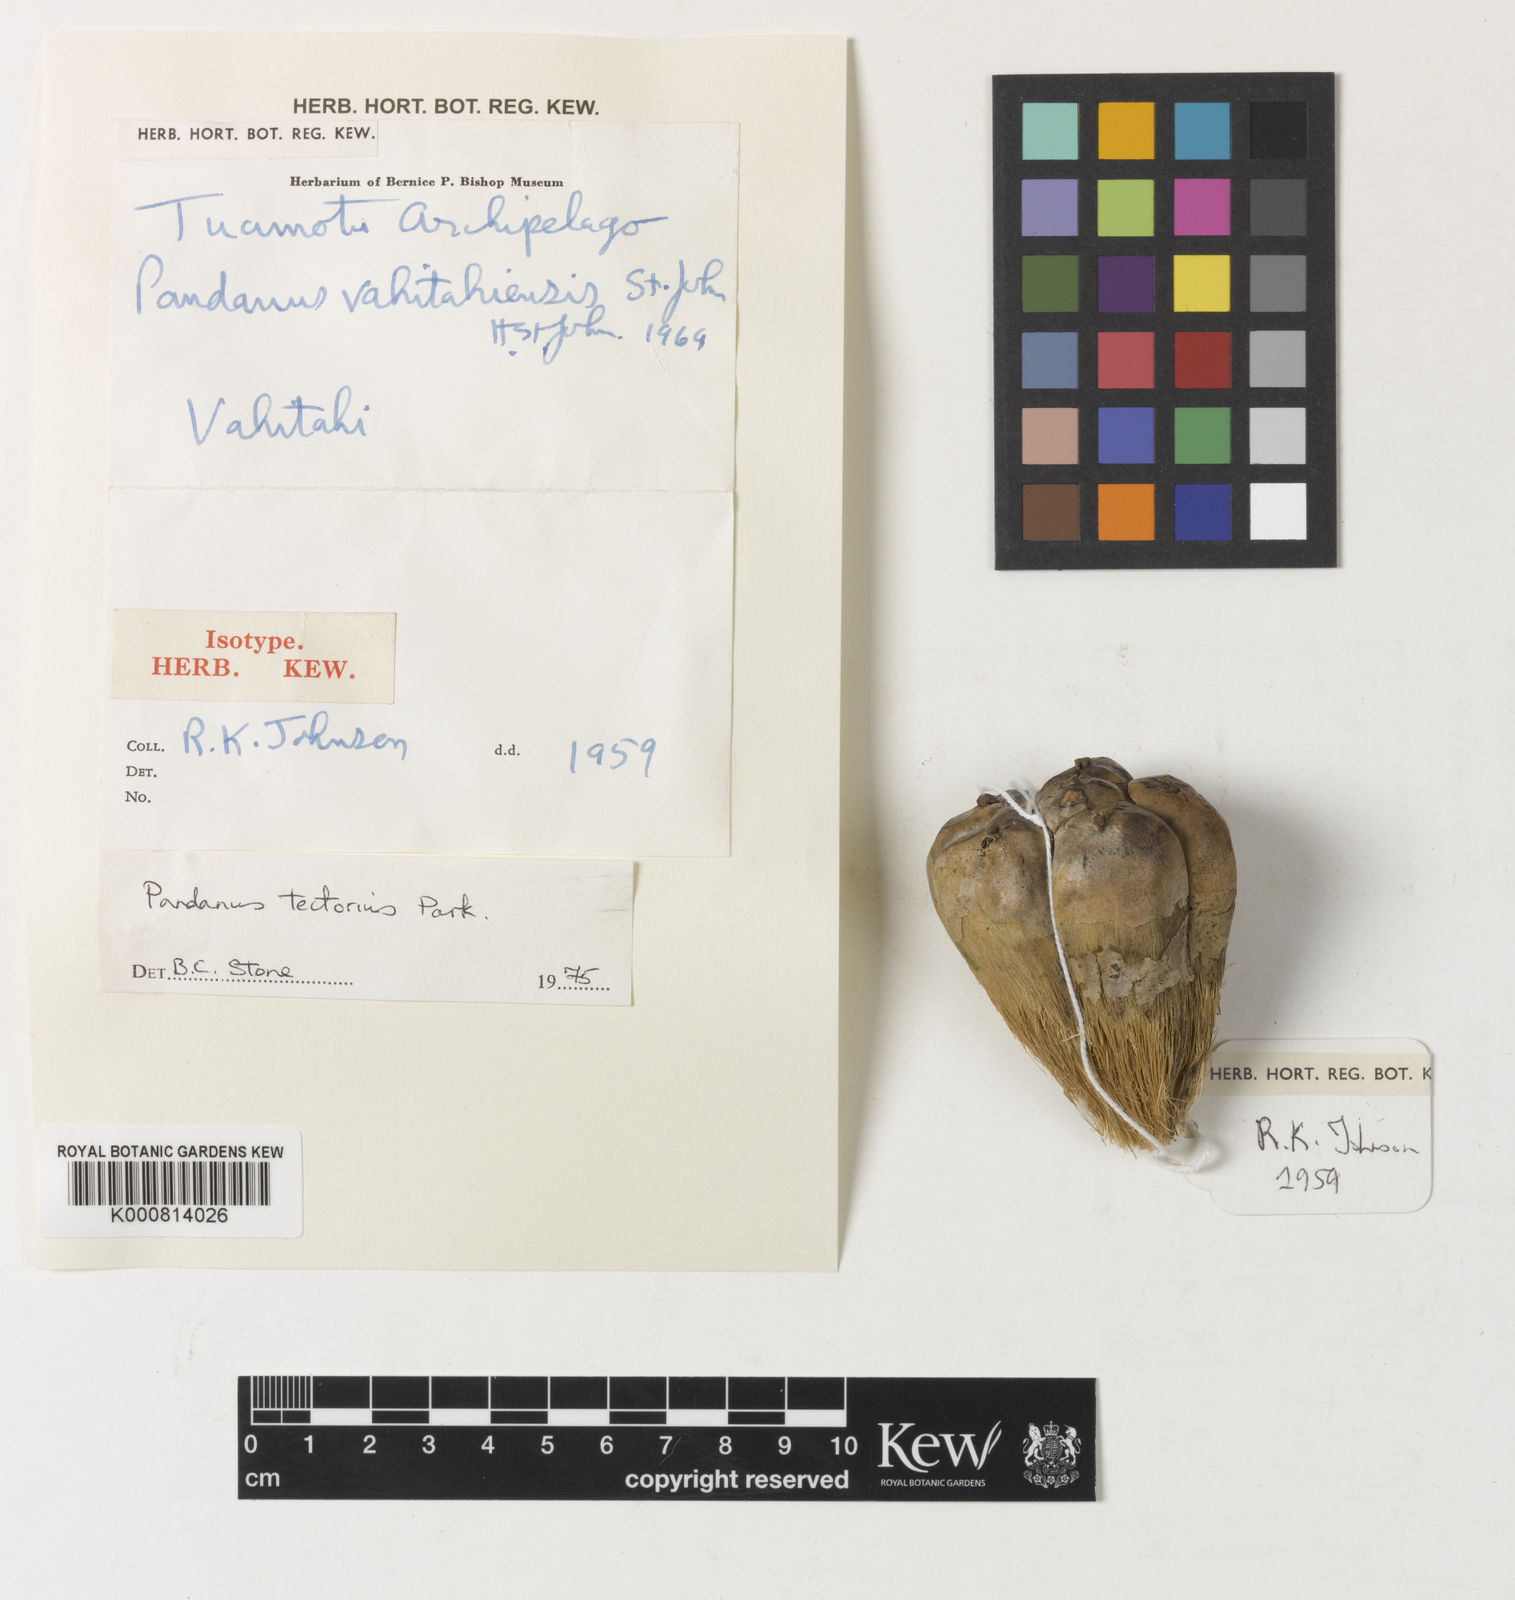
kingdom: Plantae
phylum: Tracheophyta
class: Liliopsida
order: Pandanales
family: Pandanaceae
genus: Pandanus
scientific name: Pandanus
